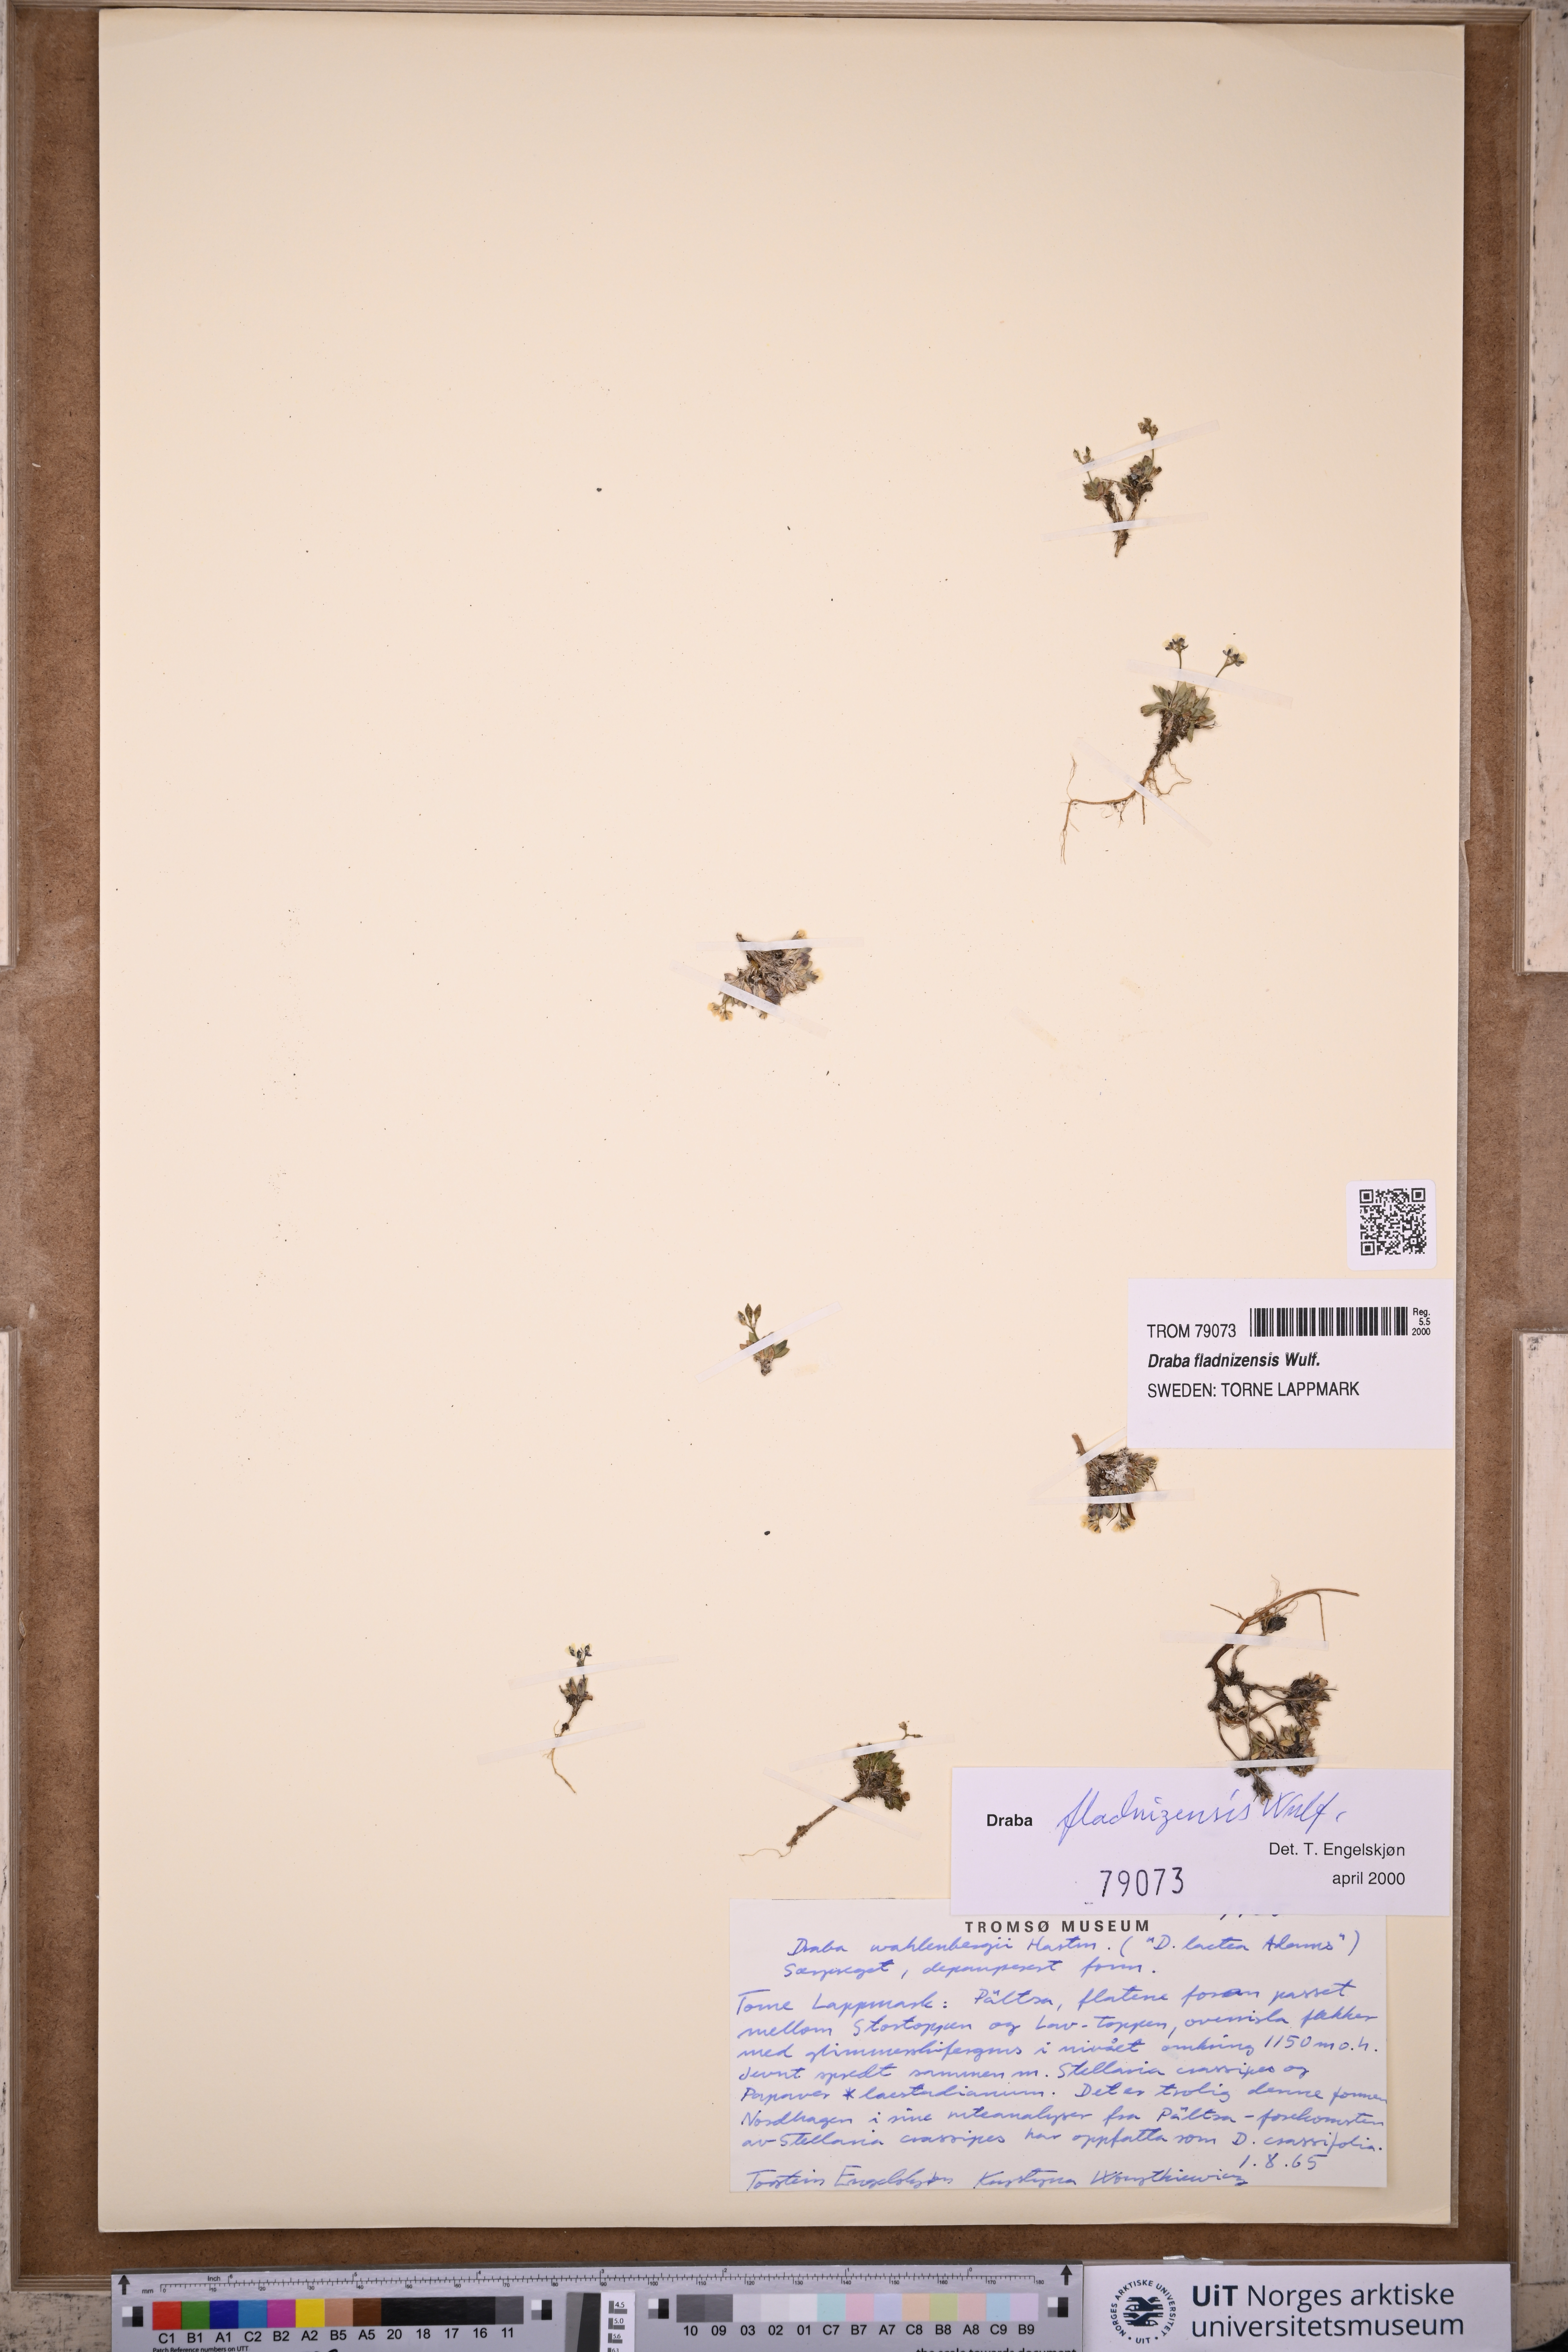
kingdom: Plantae
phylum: Tracheophyta
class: Magnoliopsida
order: Brassicales
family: Brassicaceae
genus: Draba
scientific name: Draba fladnizensis
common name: Austrian draba
